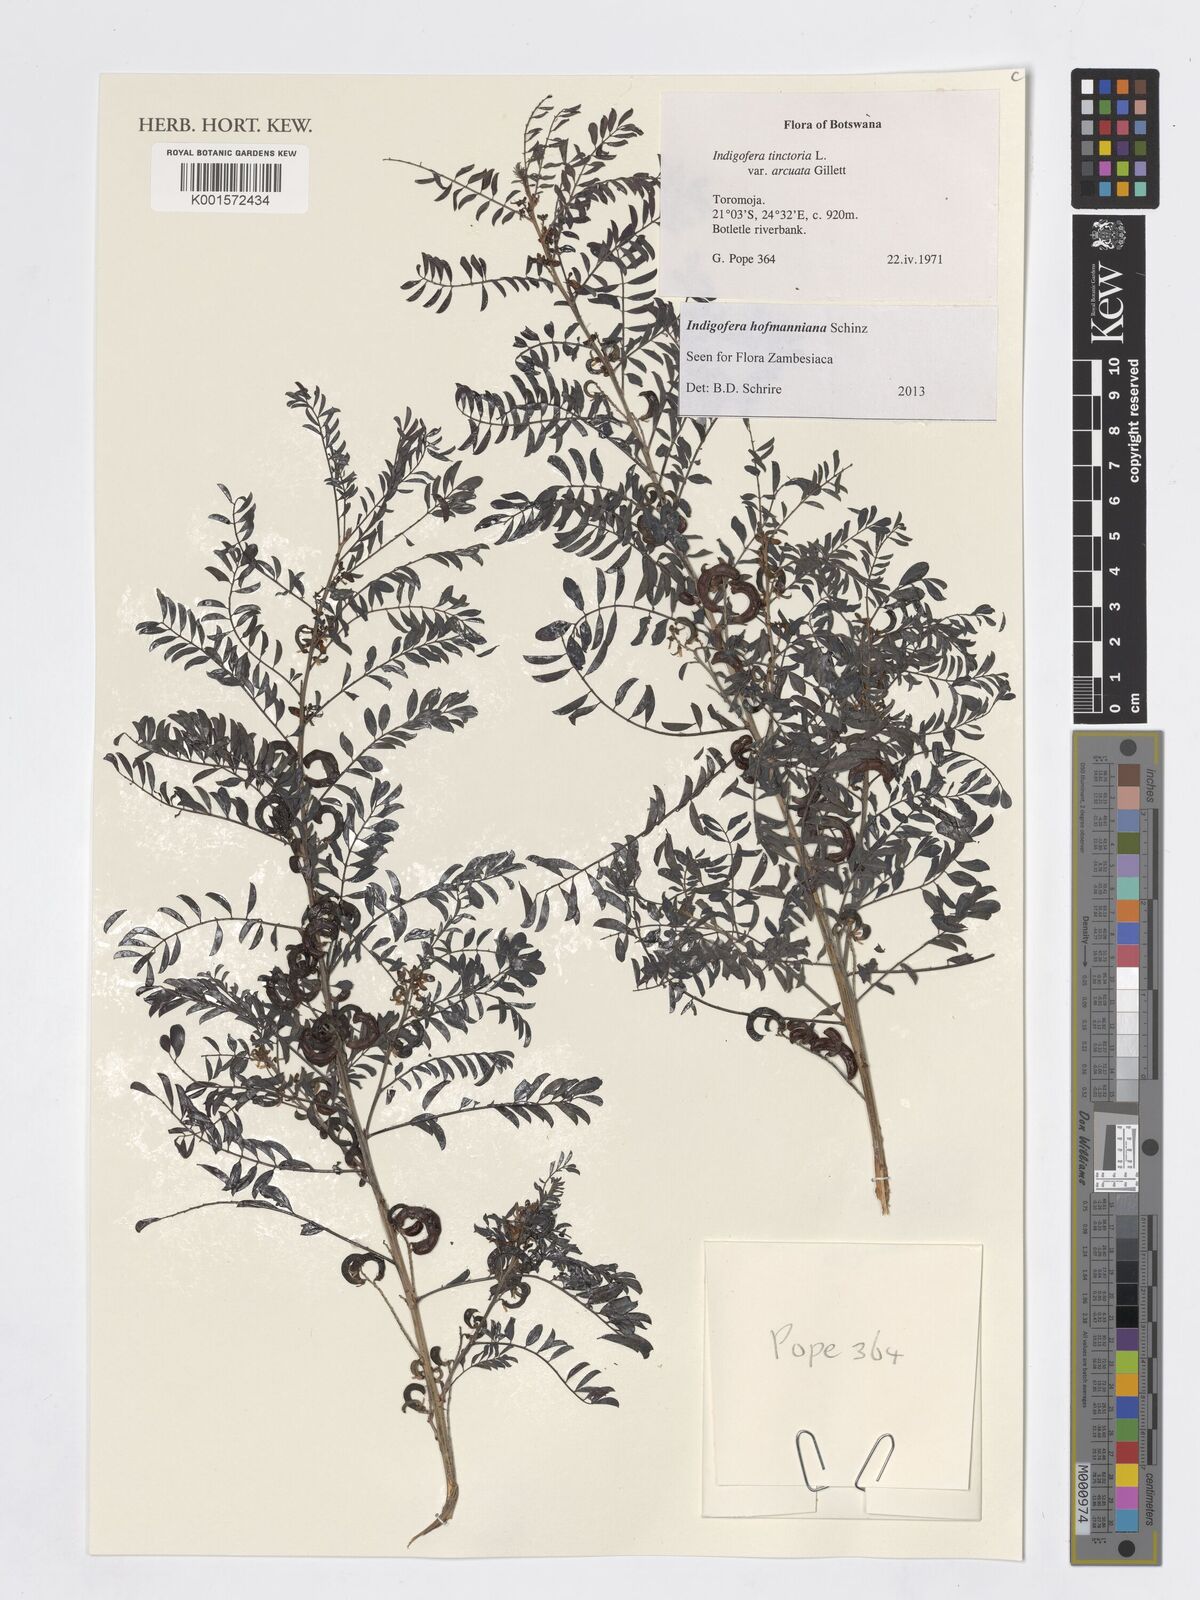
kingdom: Plantae
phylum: Tracheophyta
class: Magnoliopsida
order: Fabales
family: Fabaceae
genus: Indigofera
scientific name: Indigofera hofmanniana
